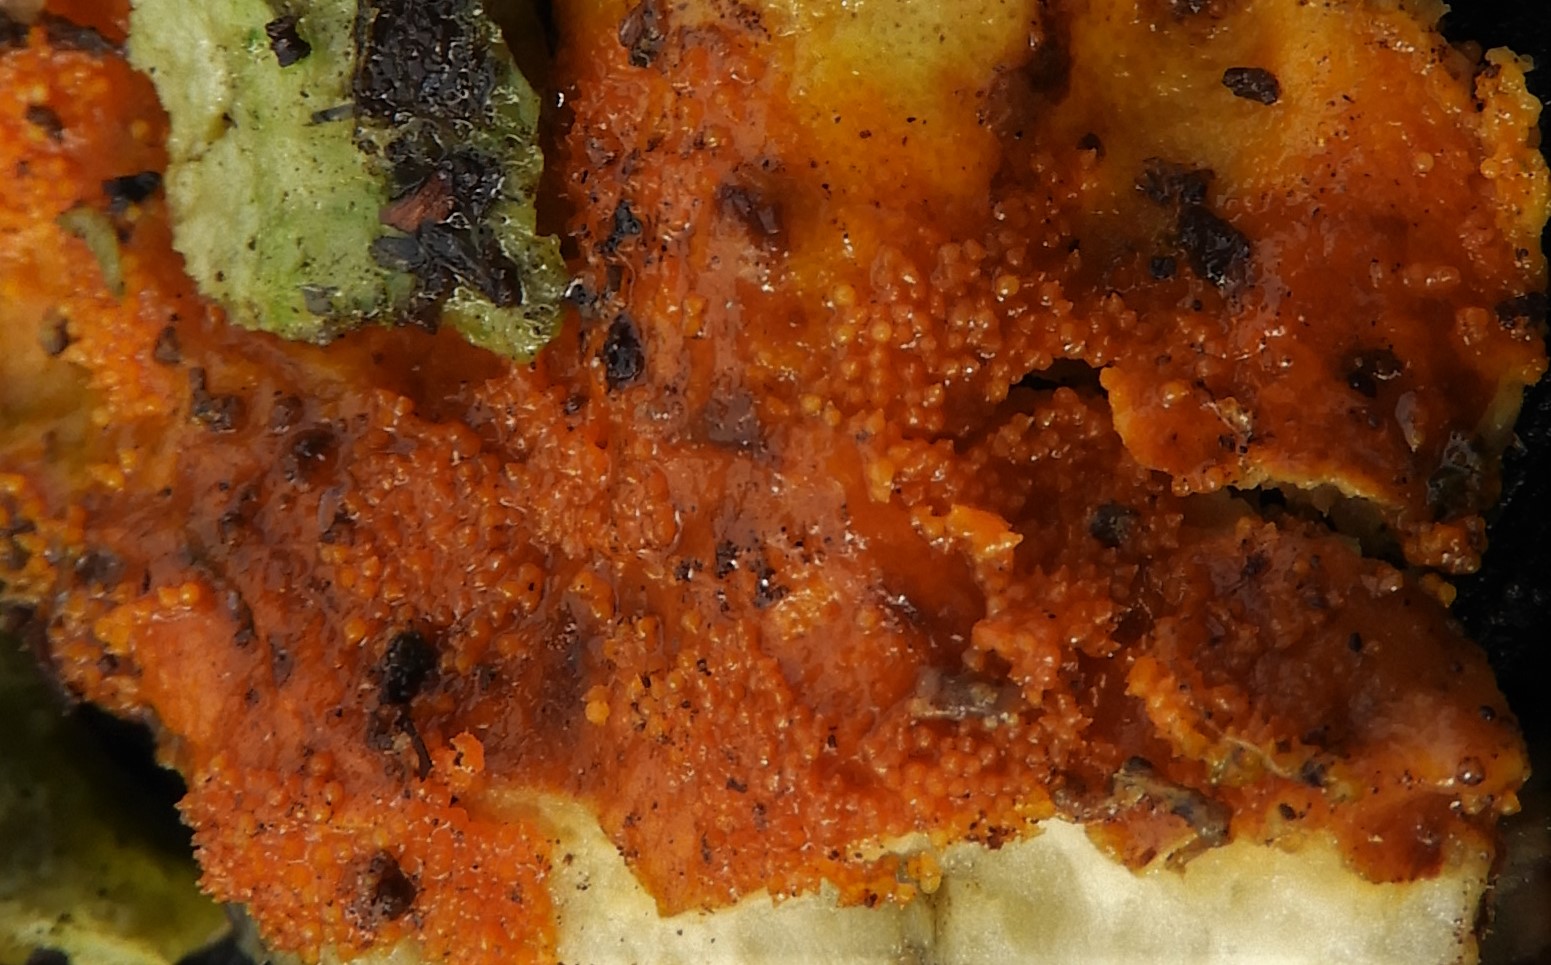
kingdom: Fungi
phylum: Ascomycota
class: Sordariomycetes
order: Hypocreales
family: Hypocreaceae
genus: Hypomyces
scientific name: Hypomyces aurantius
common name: almindelig snylteskorpe
